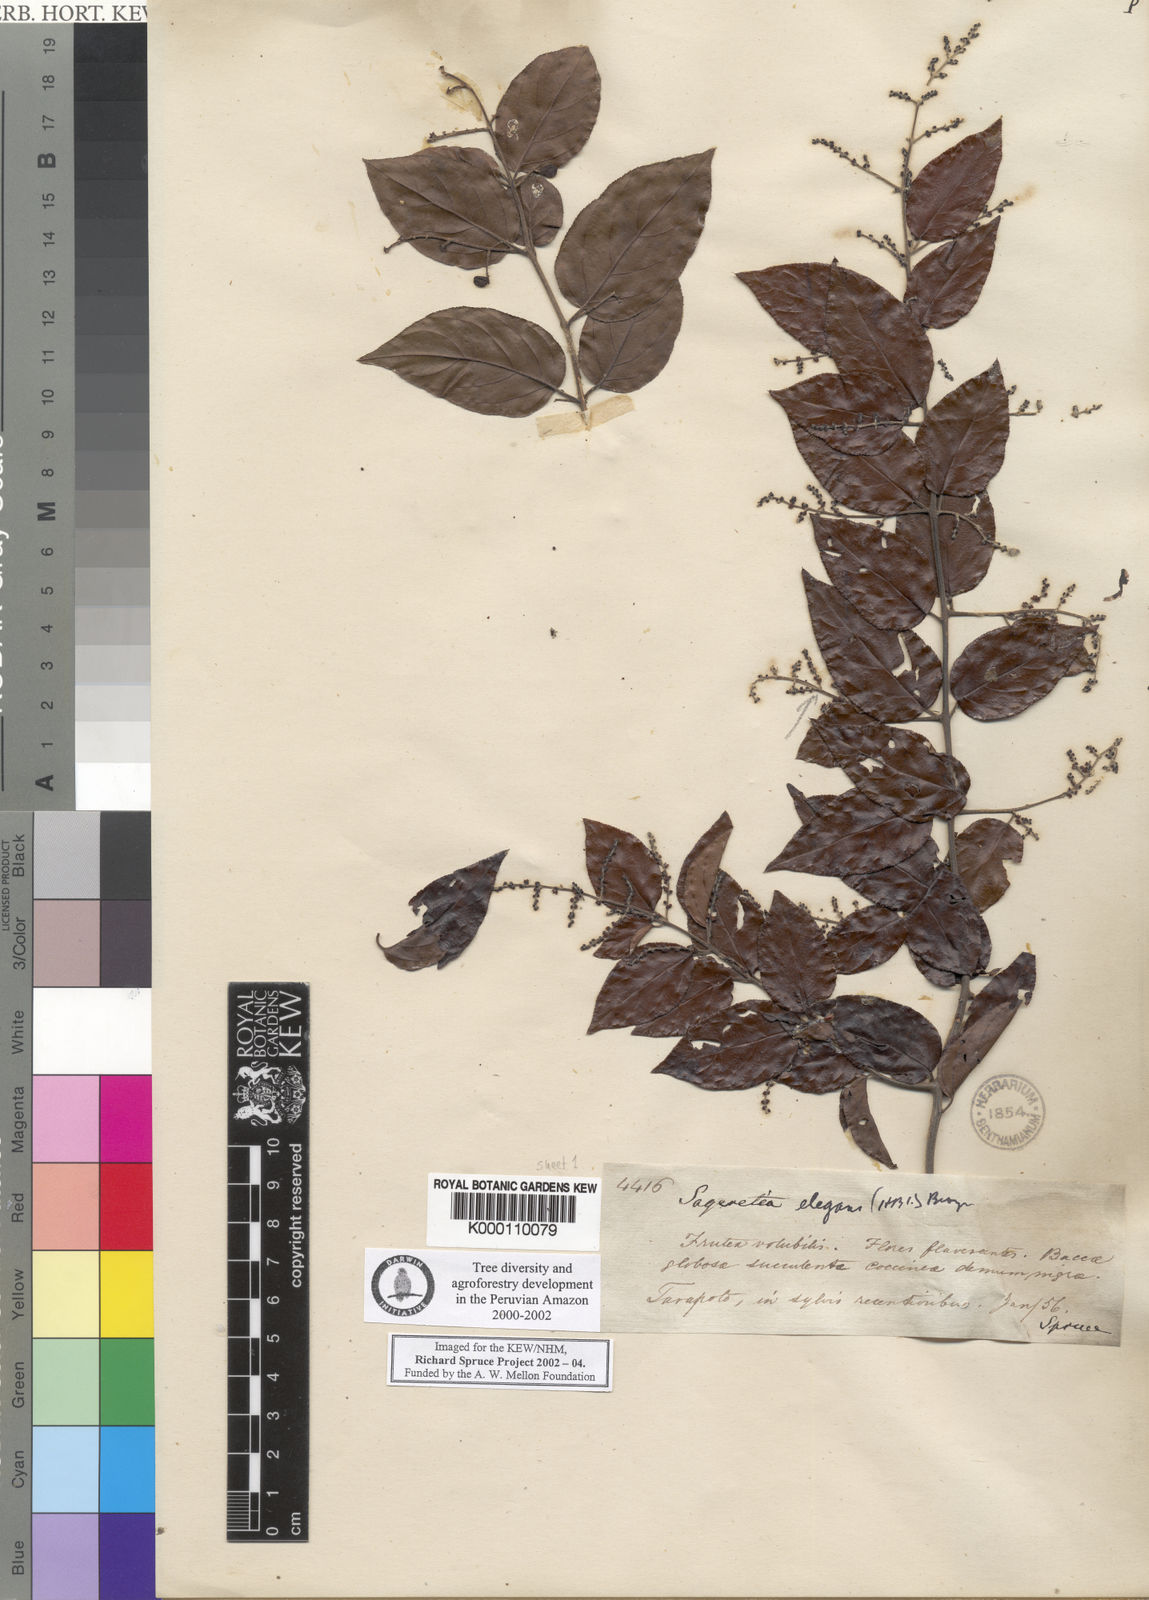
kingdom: Plantae
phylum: Tracheophyta
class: Magnoliopsida
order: Rosales
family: Rhamnaceae
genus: Sageretia
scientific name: Sageretia elegans
